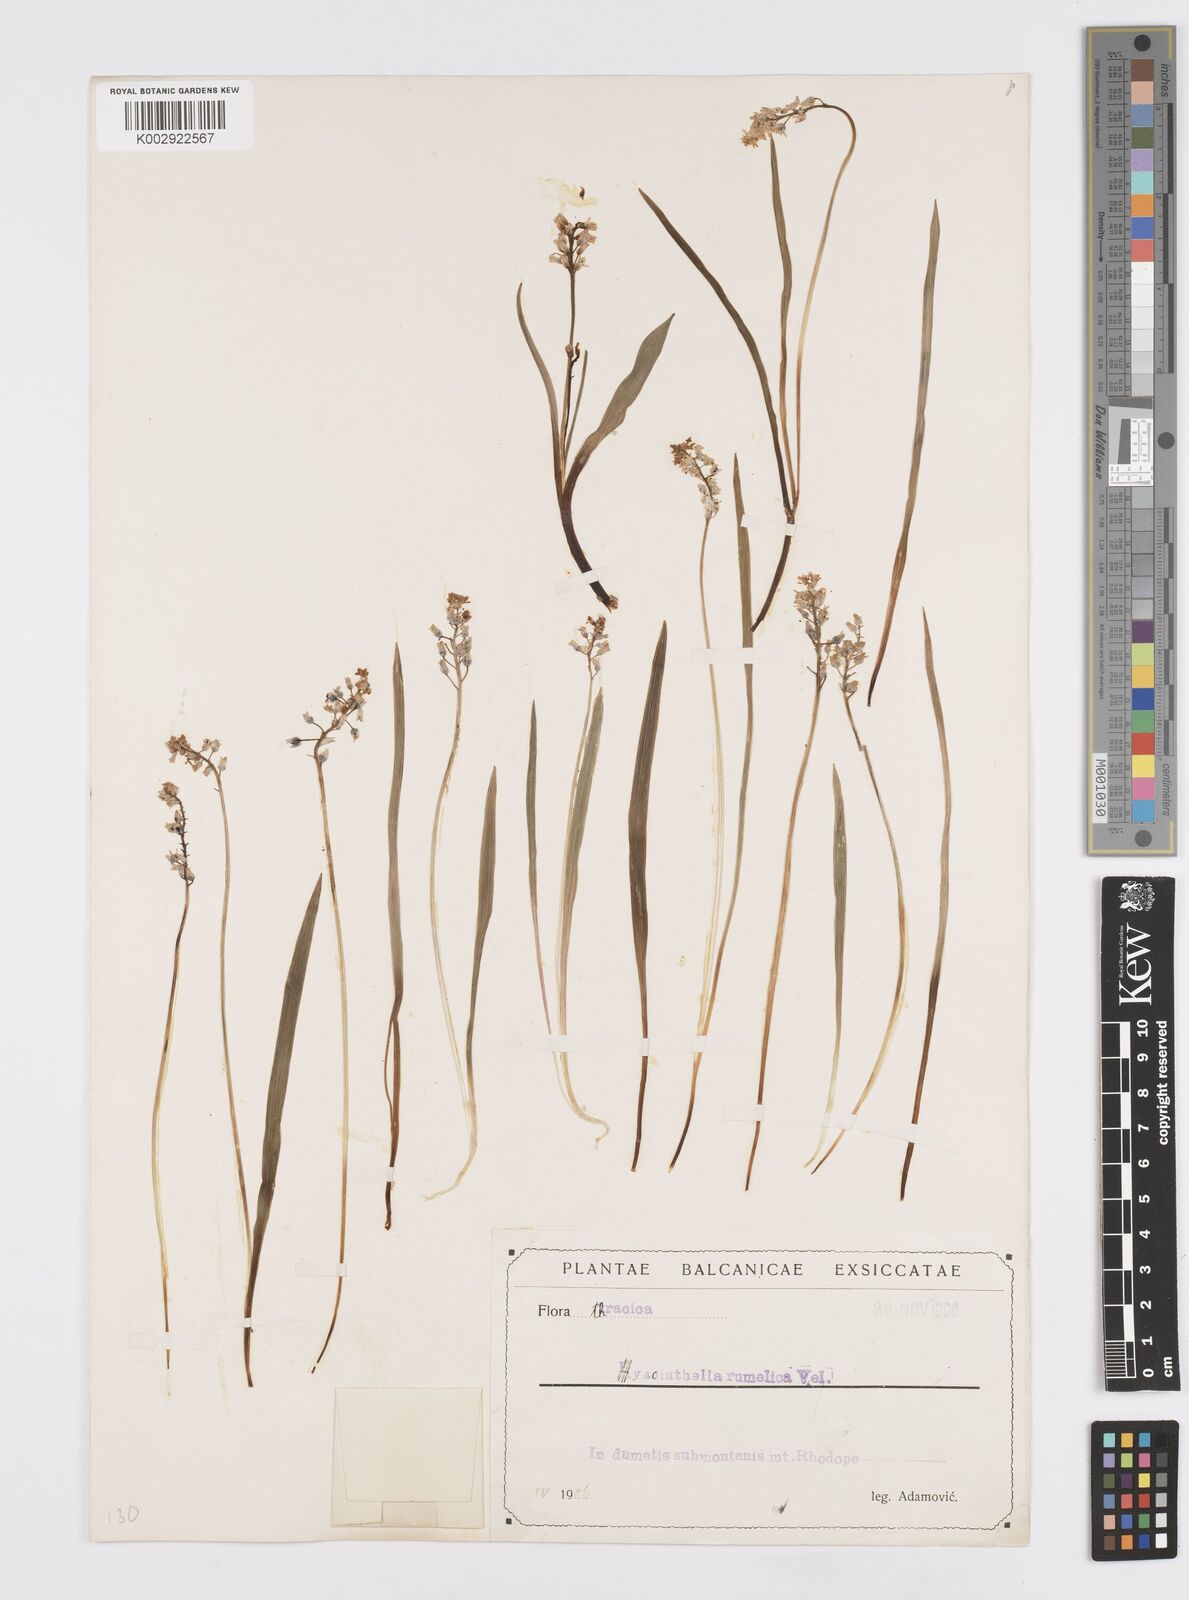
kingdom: Plantae
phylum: Tracheophyta
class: Liliopsida
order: Asparagales
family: Asparagaceae
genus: Hyacinthella
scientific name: Hyacinthella leucophaea
